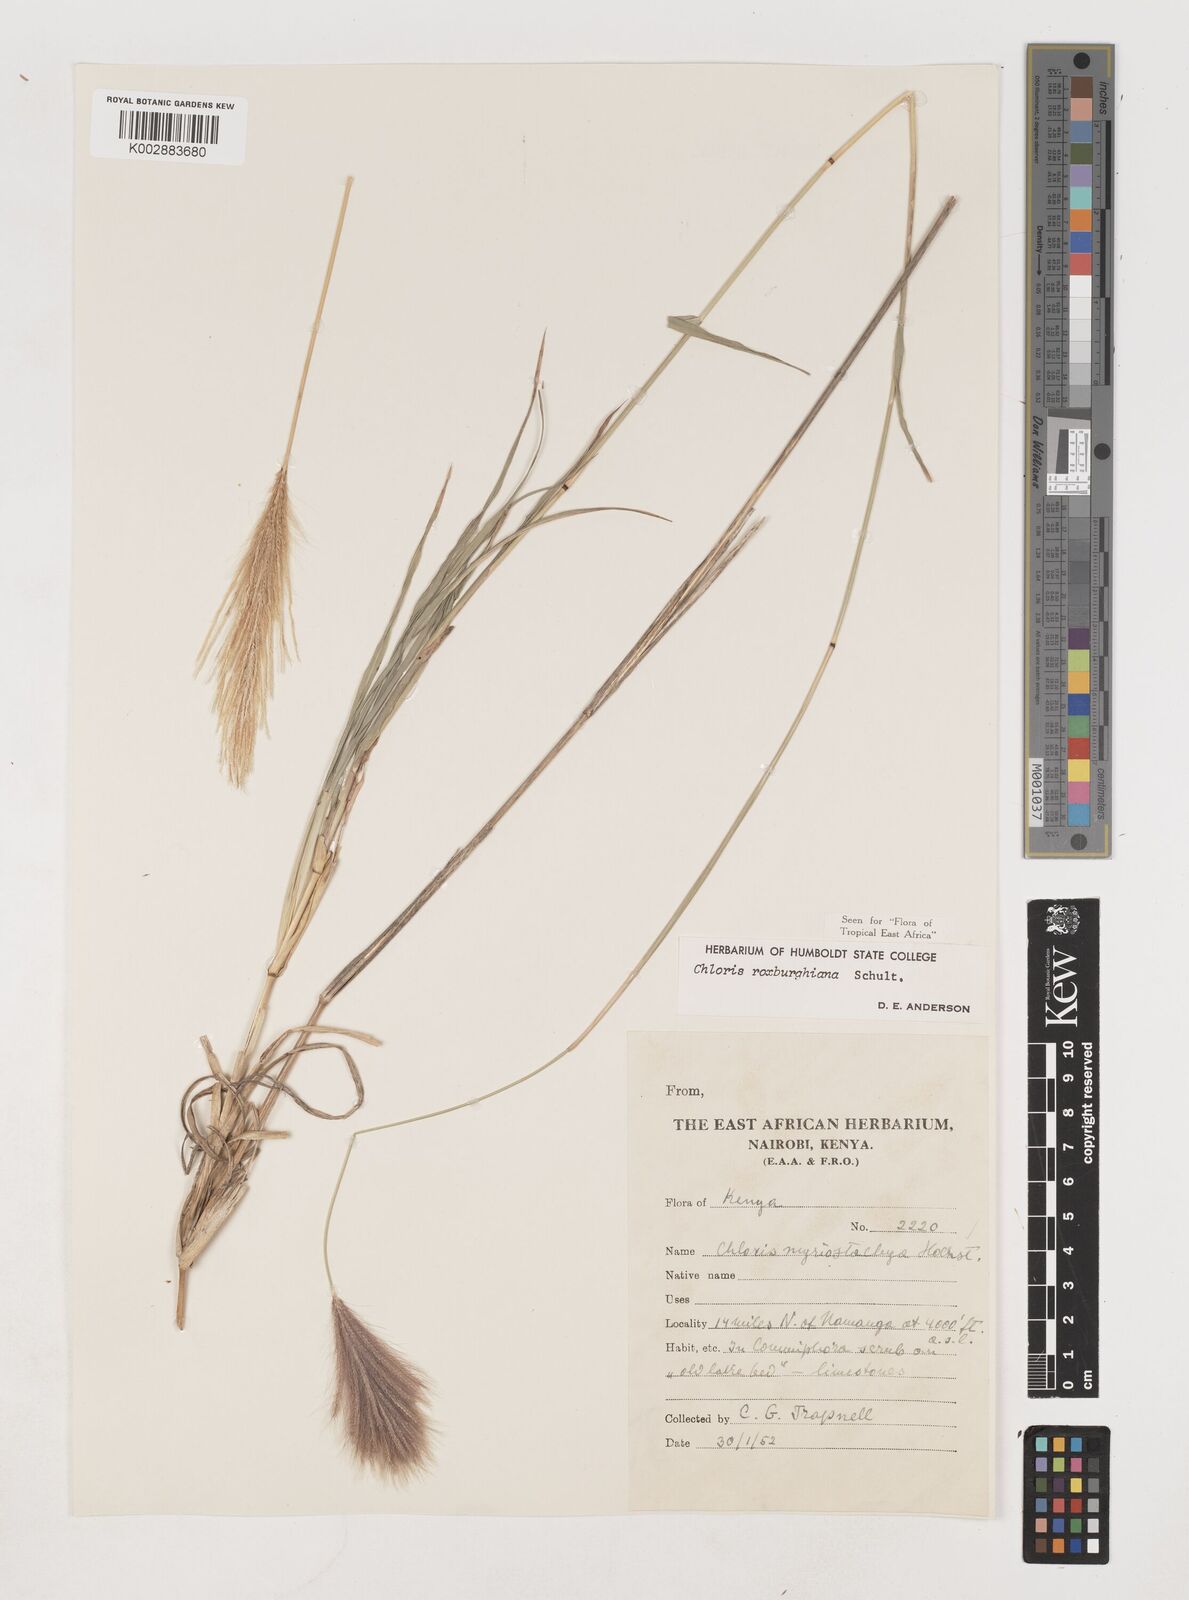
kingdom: Plantae
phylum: Tracheophyta
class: Liliopsida
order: Poales
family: Poaceae
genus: Tetrapogon
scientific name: Tetrapogon roxburghiana
